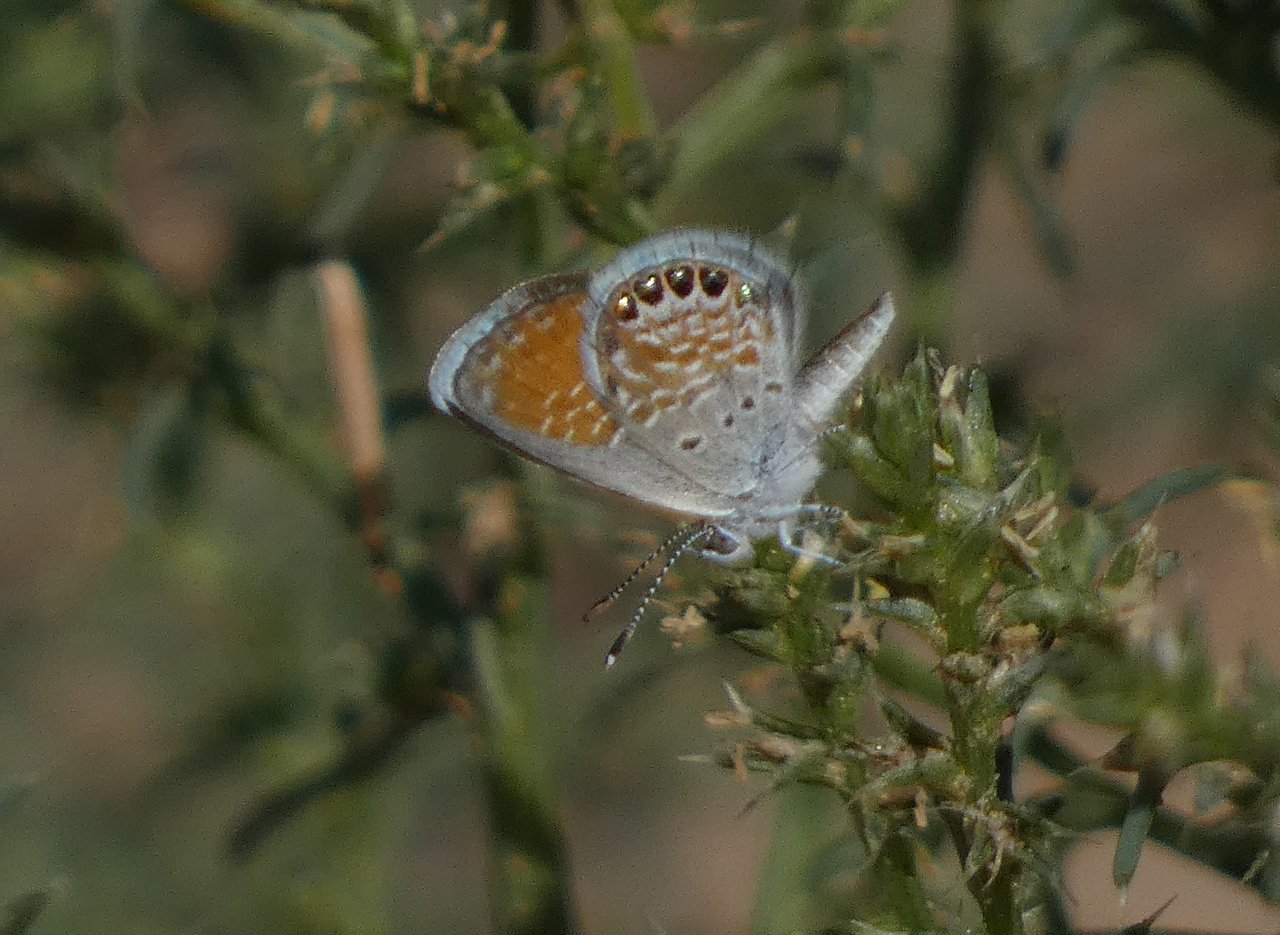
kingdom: Animalia
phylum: Arthropoda
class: Insecta
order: Lepidoptera
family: Lycaenidae
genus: Brephidium
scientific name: Brephidium exilis
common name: Western Pygmy-Blue
